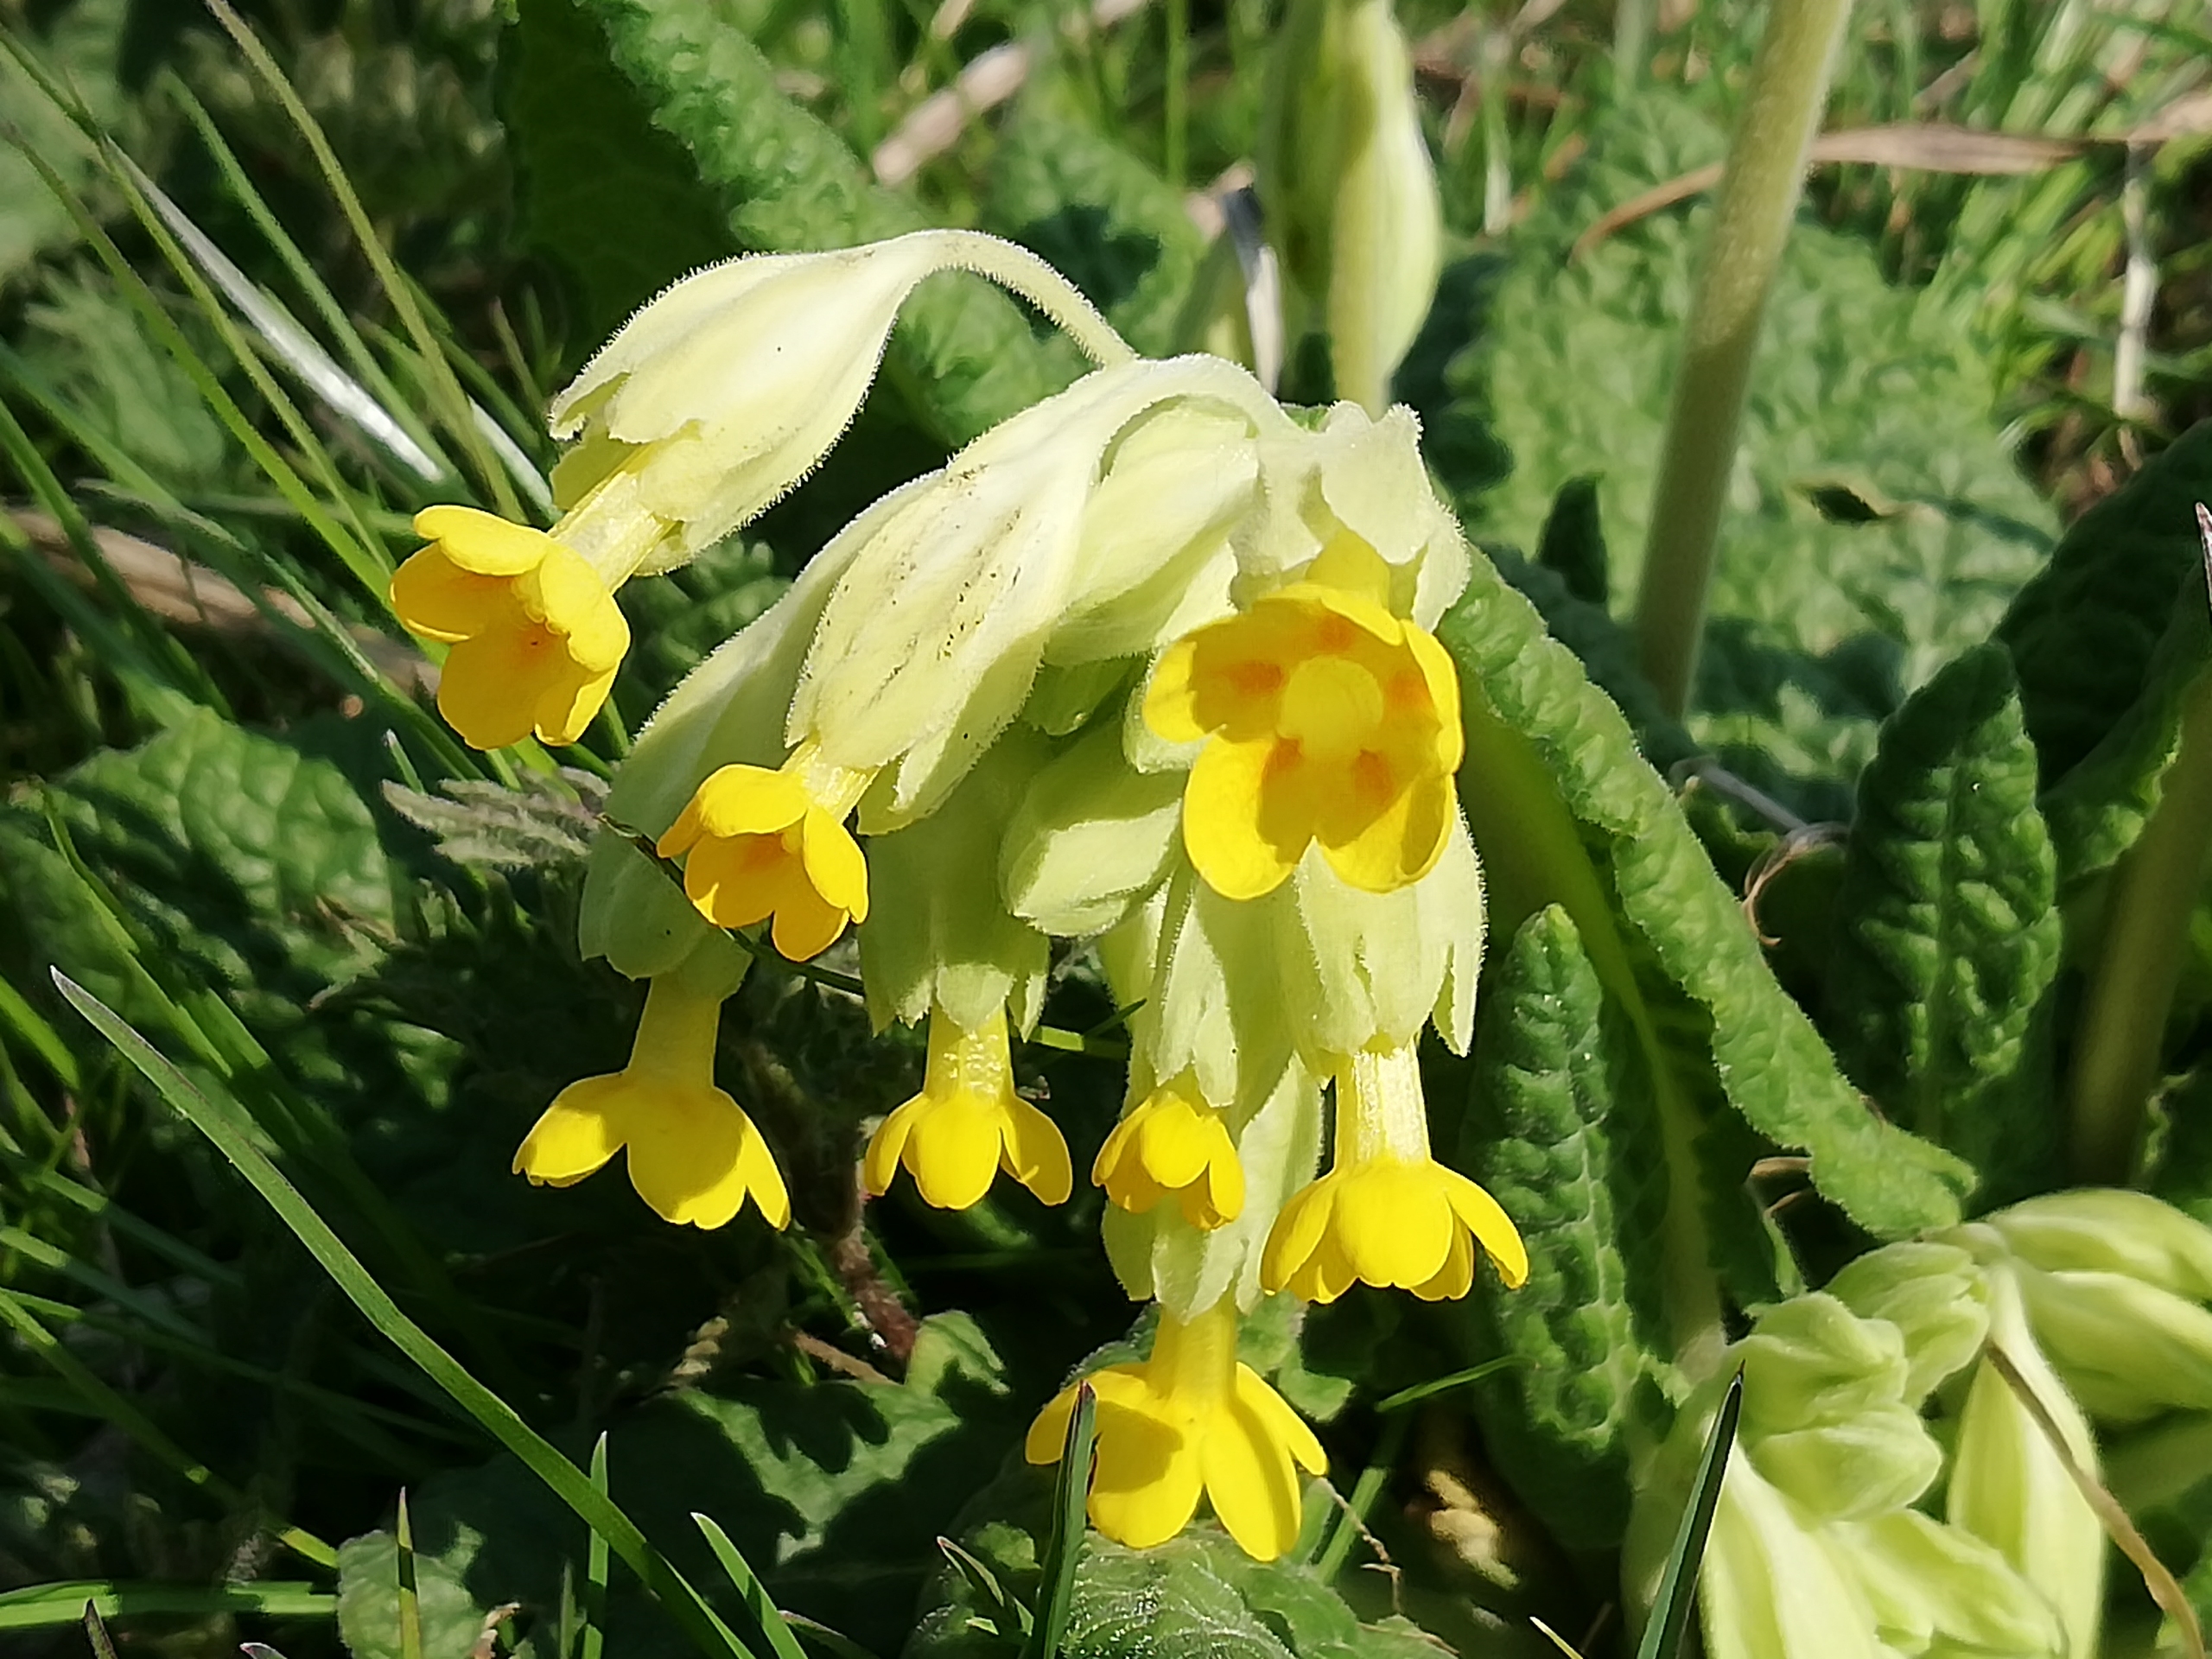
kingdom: Plantae
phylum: Tracheophyta
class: Magnoliopsida
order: Ericales
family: Primulaceae
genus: Primula
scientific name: Primula veris
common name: Hulkravet kodriver
